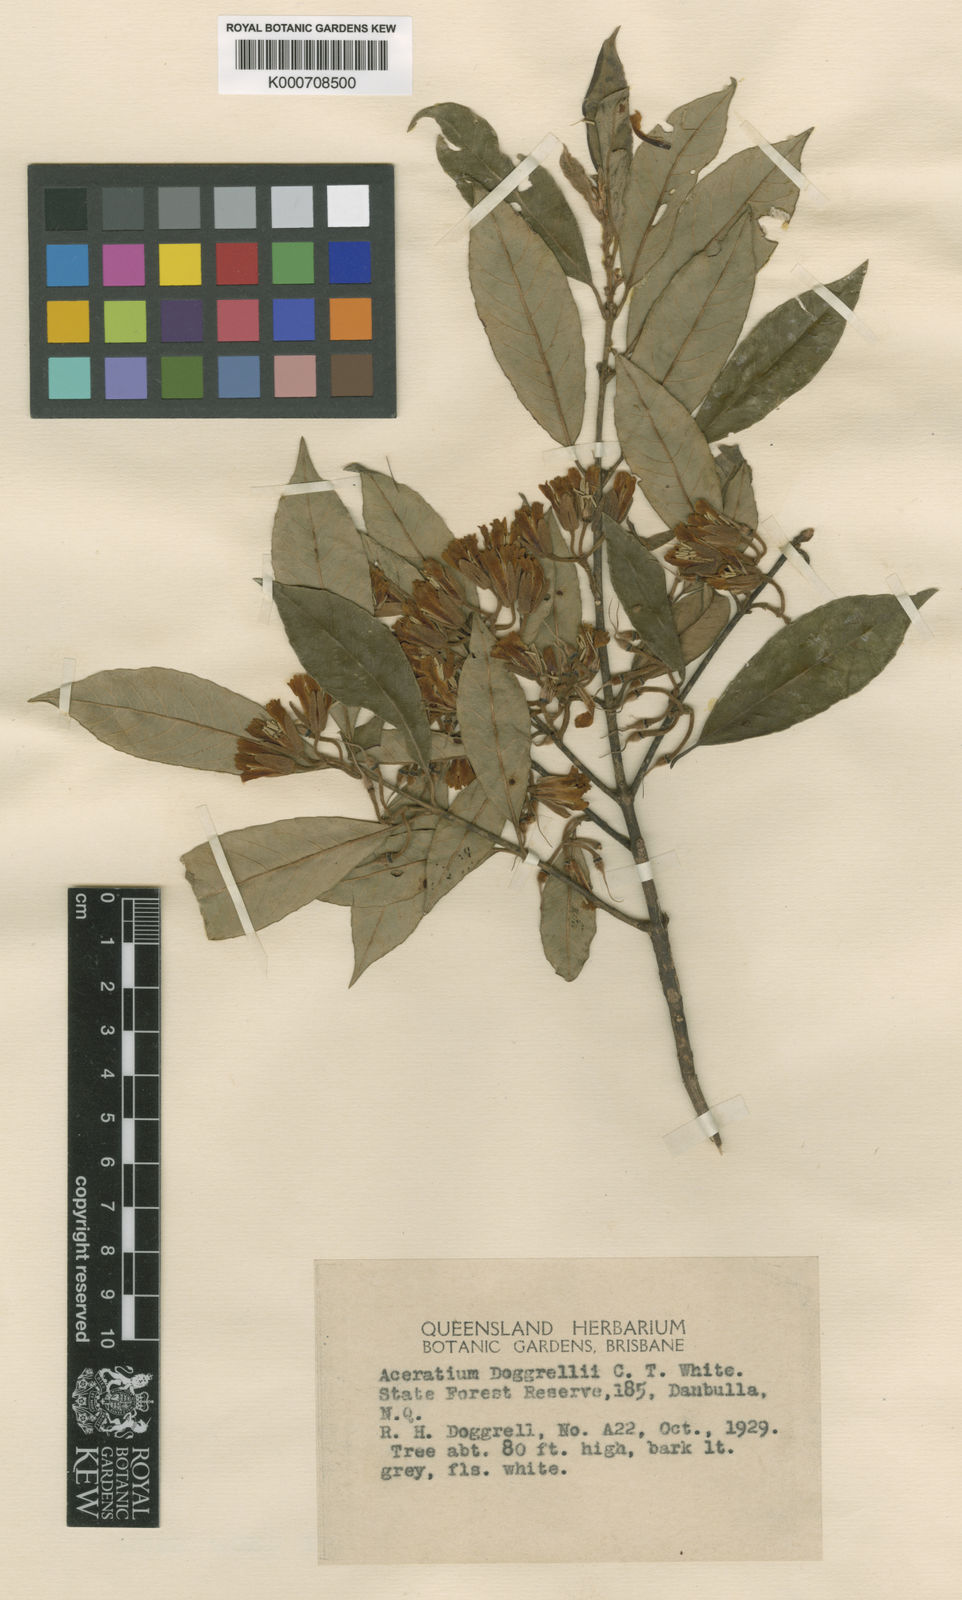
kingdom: Plantae
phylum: Tracheophyta
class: Magnoliopsida
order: Oxalidales
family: Elaeocarpaceae
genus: Aceratium
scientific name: Aceratium doggrellii
